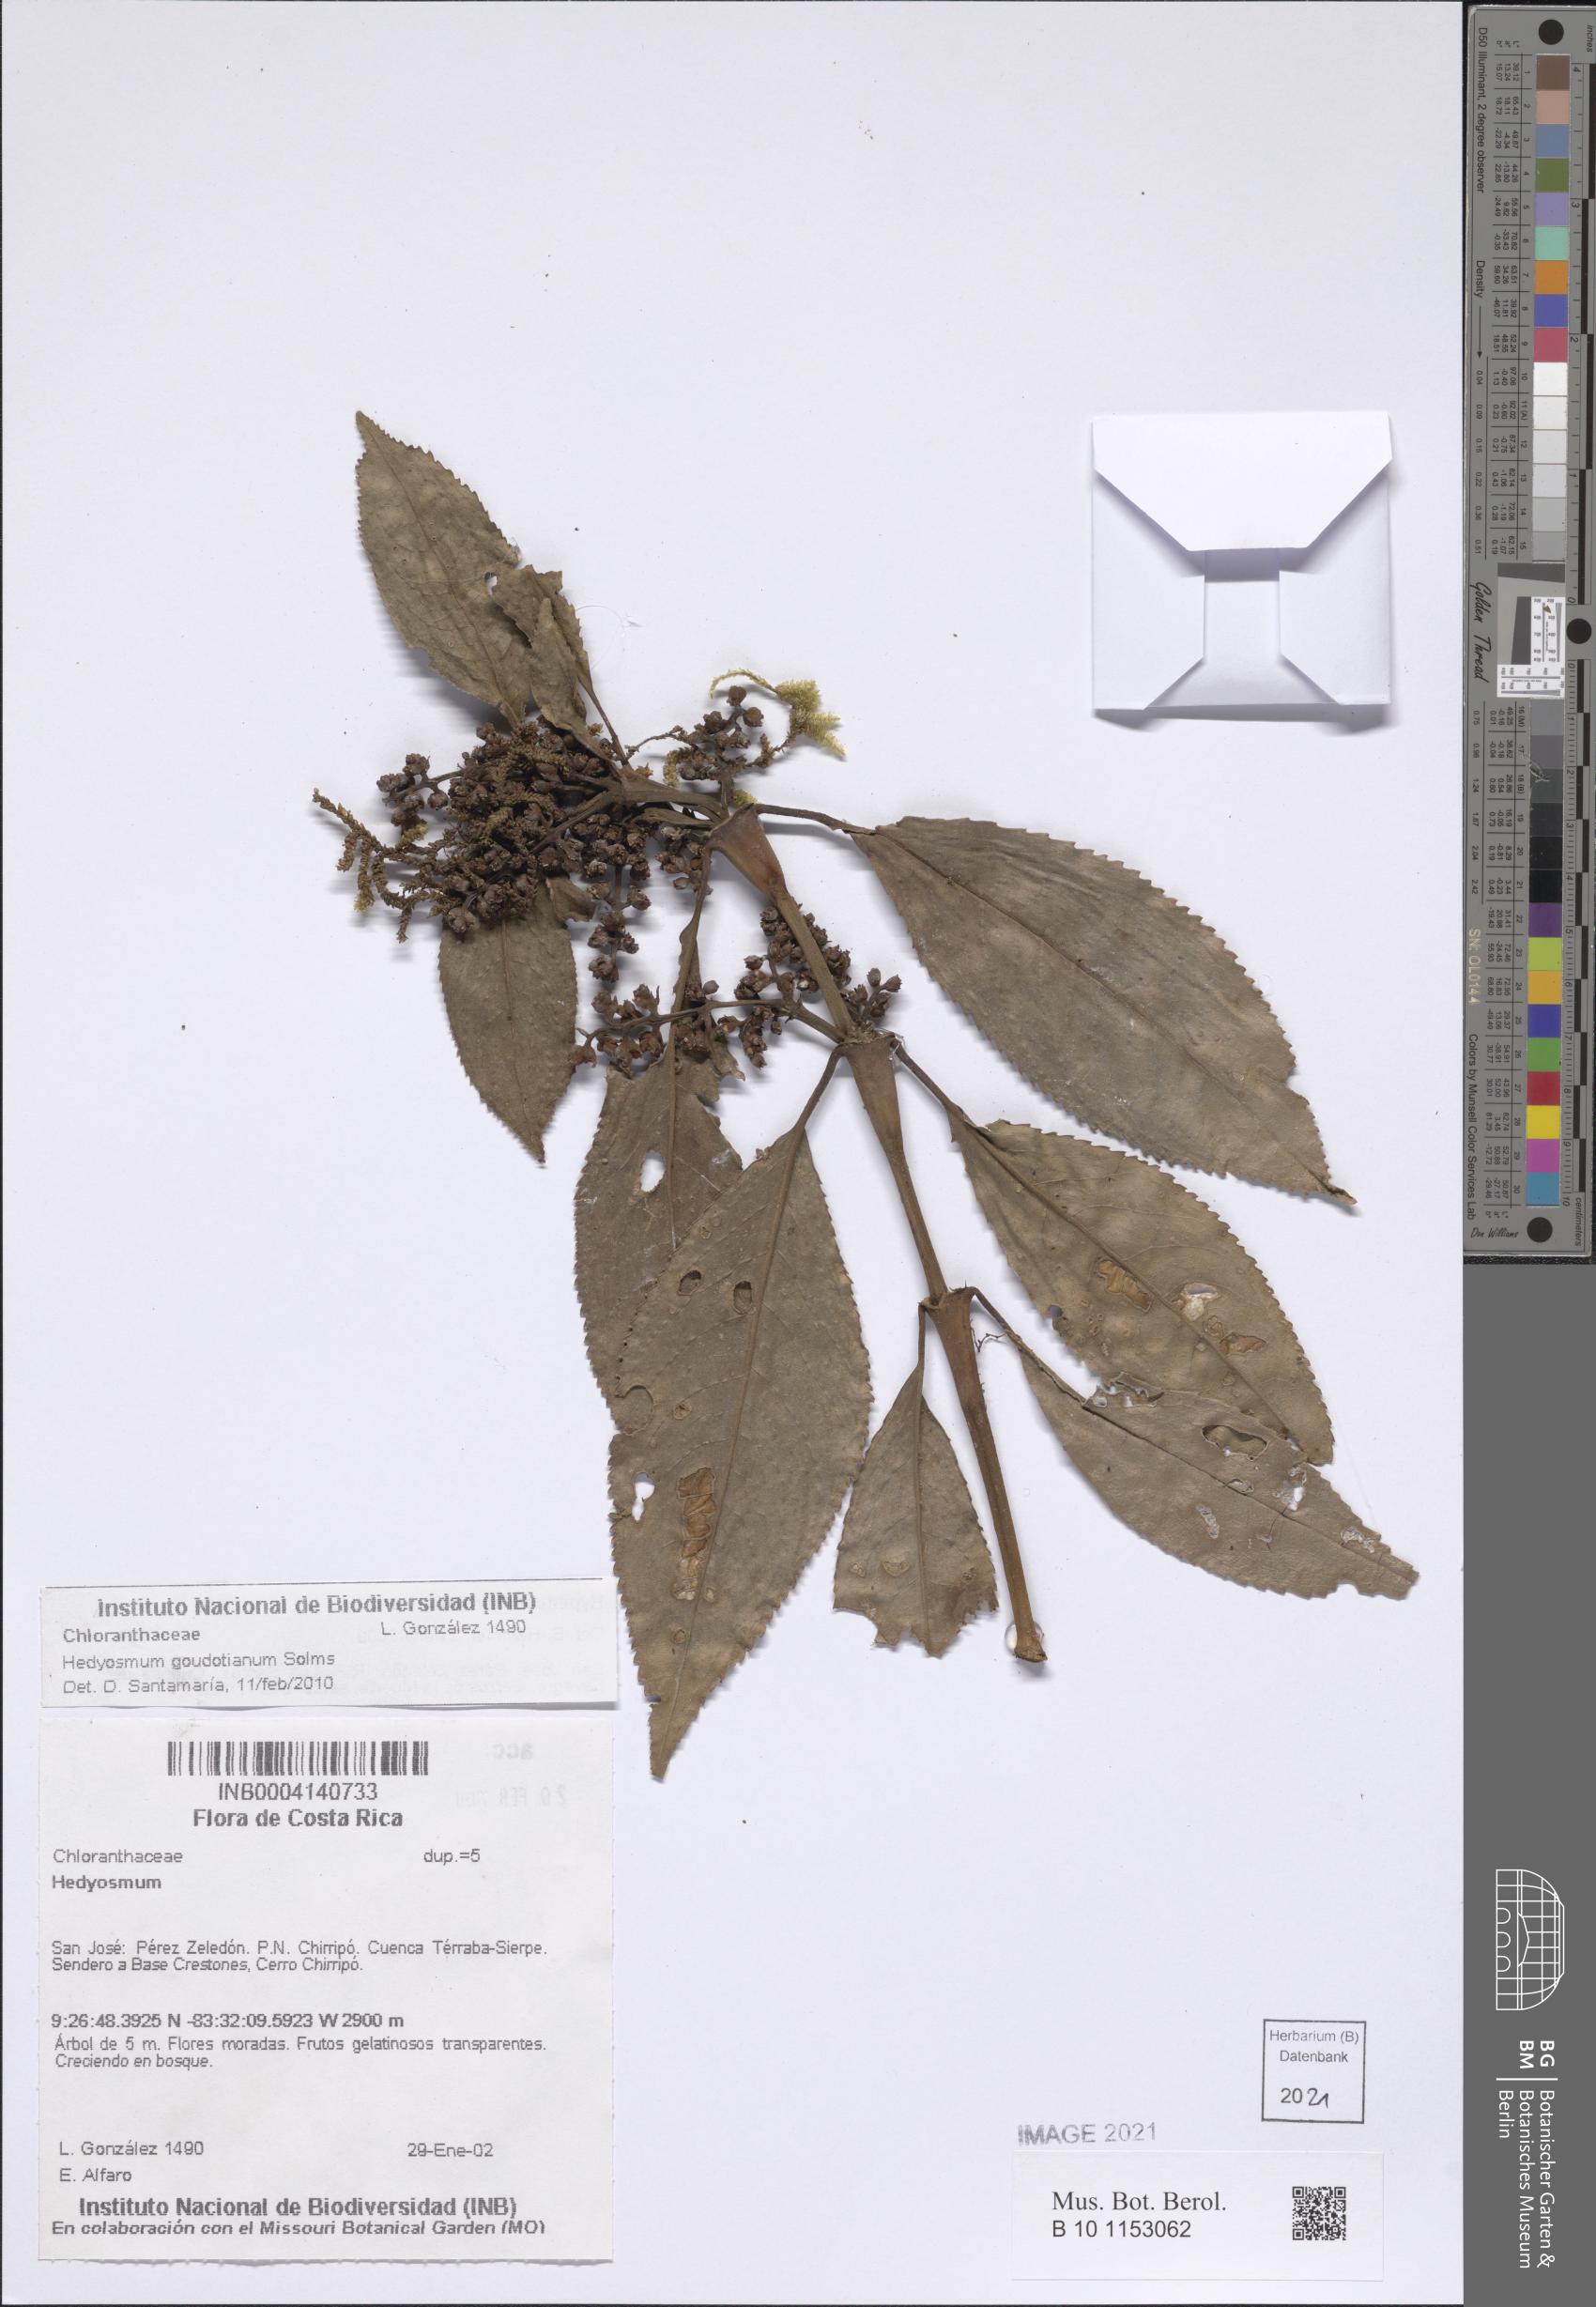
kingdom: Plantae
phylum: Tracheophyta
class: Magnoliopsida
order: Chloranthales
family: Chloranthaceae
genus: Hedyosmum
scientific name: Hedyosmum goudotianum
